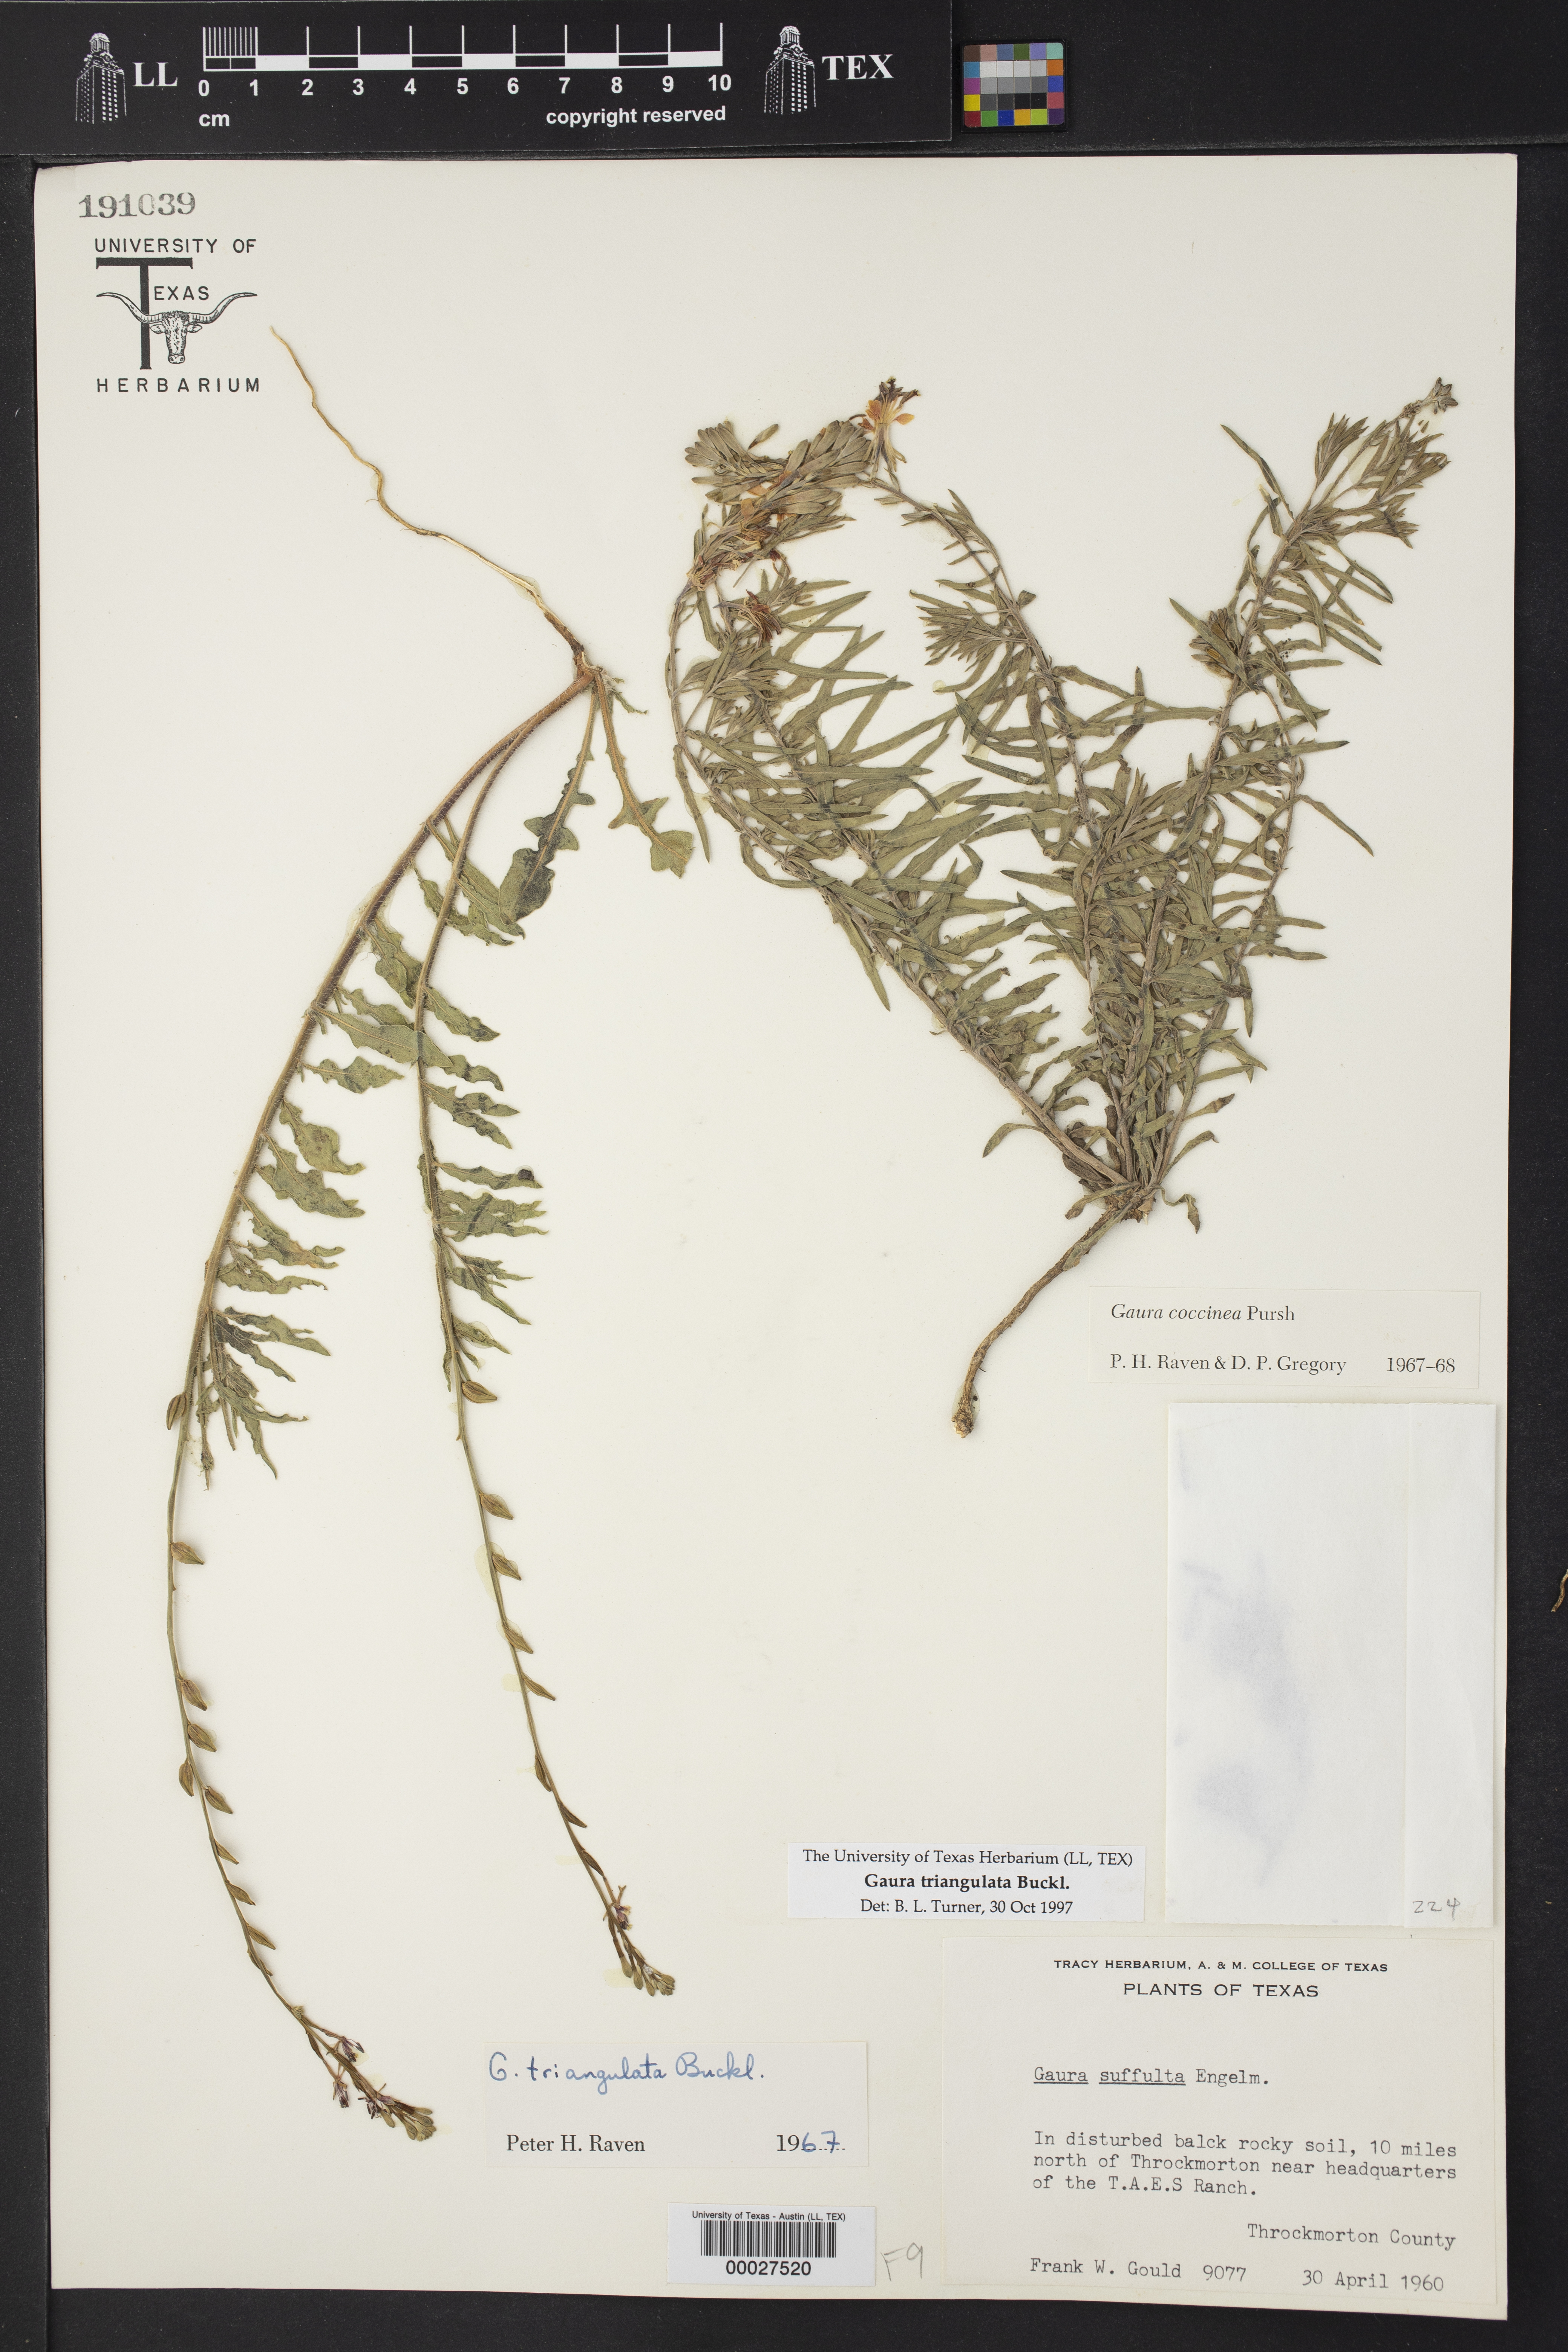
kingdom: Plantae
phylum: Tracheophyta
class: Magnoliopsida
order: Myrtales
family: Onagraceae
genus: Oenothera
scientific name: Oenothera triangulata
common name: Prairie beeblossom
